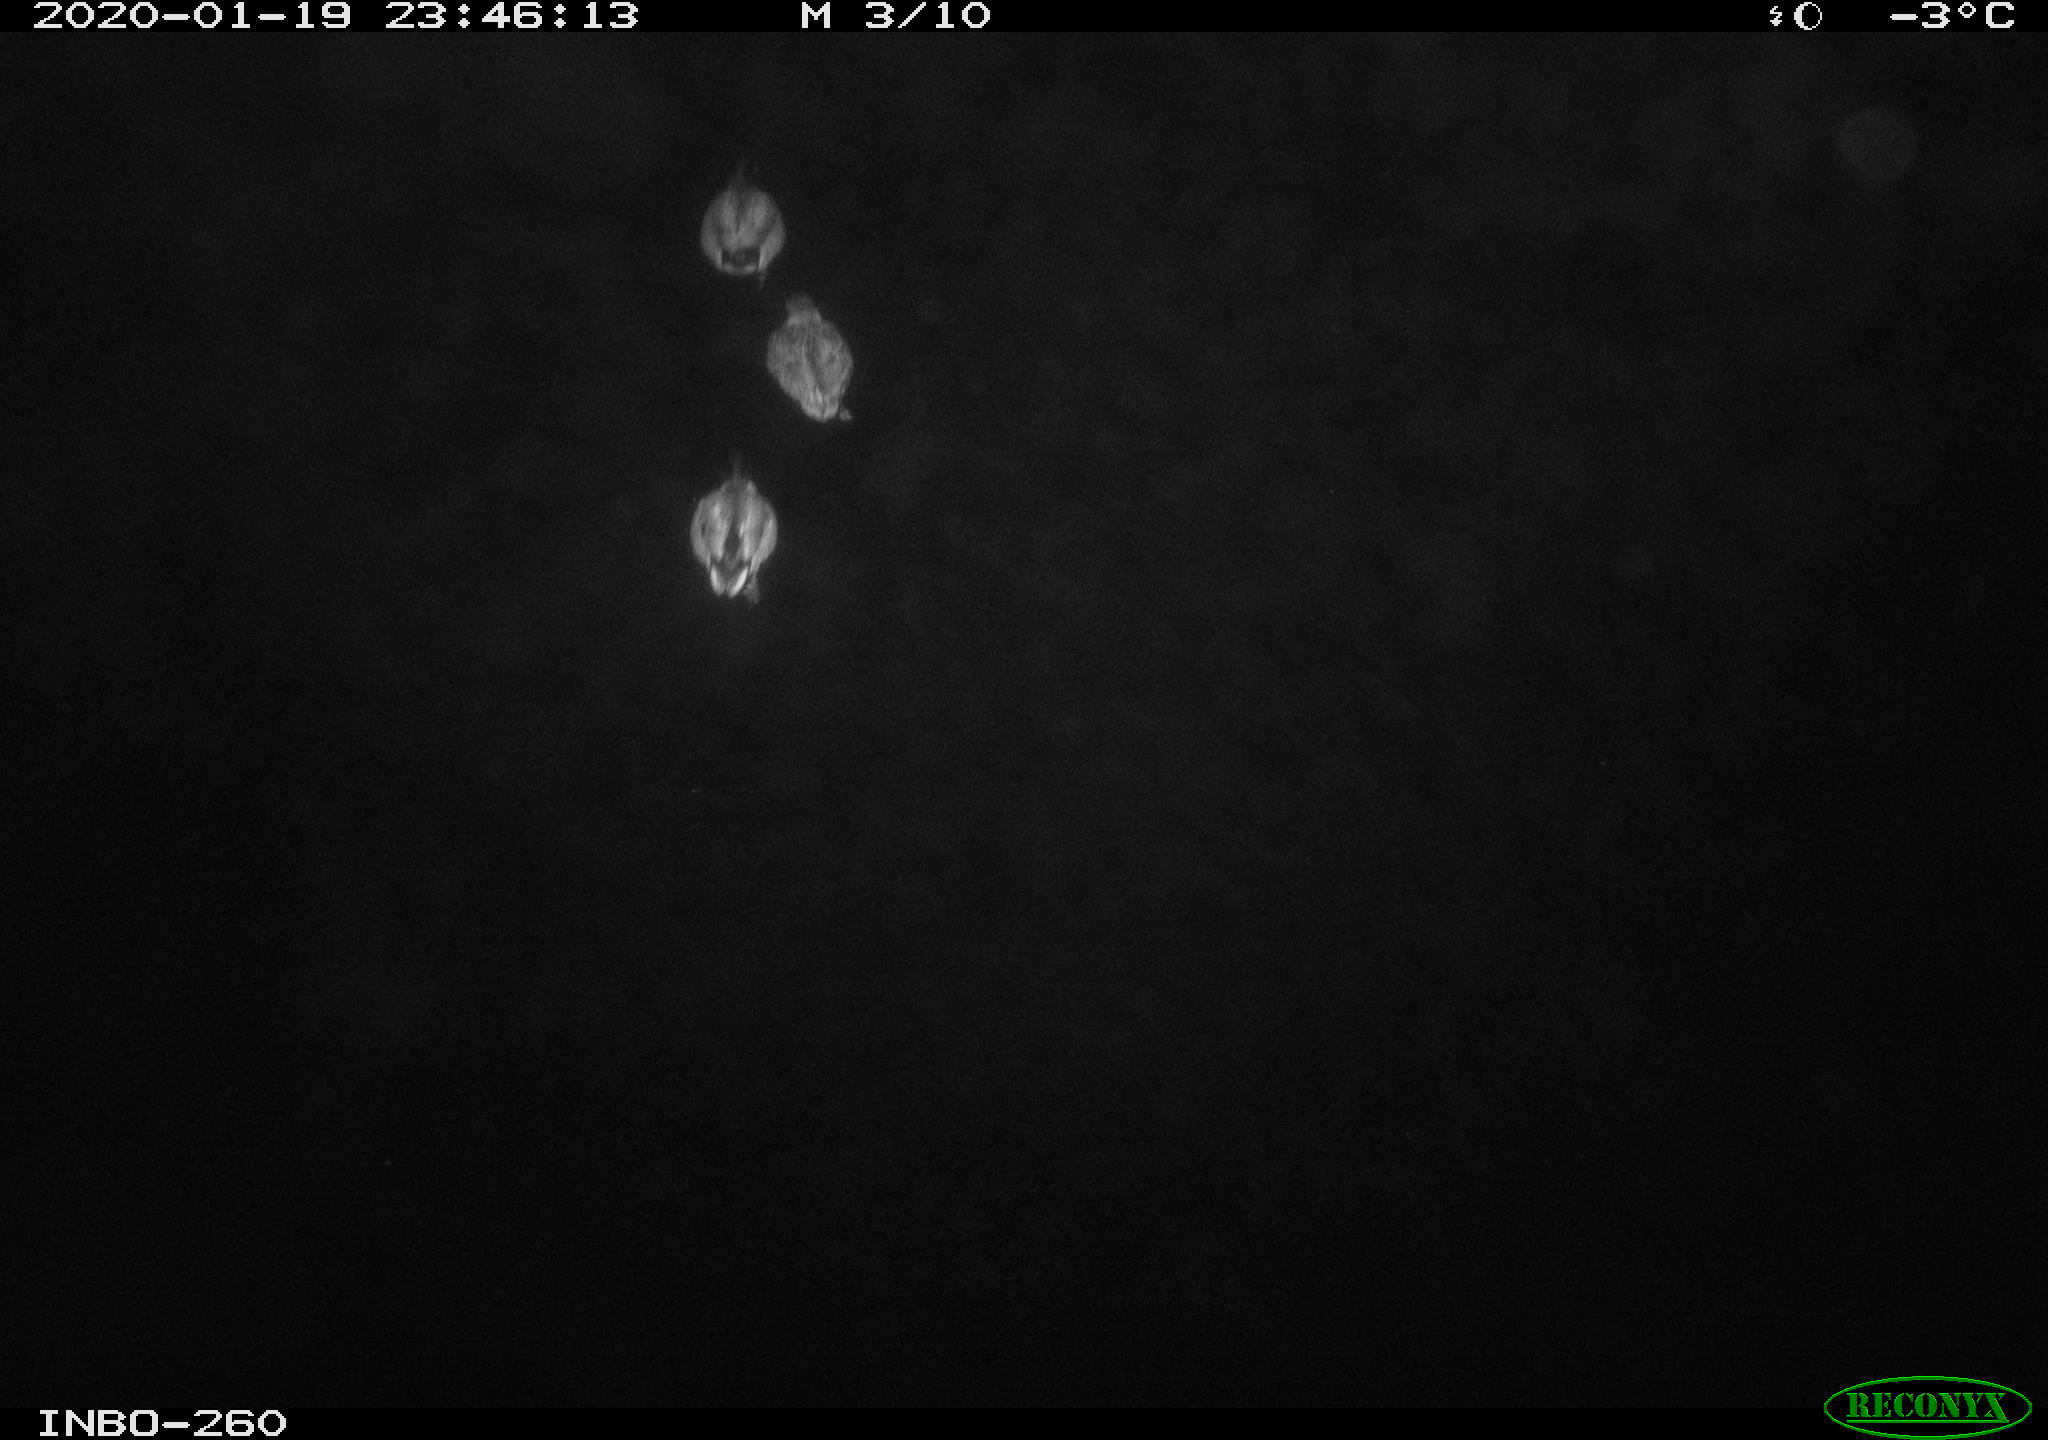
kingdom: Animalia
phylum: Chordata
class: Aves
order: Anseriformes
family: Anatidae
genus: Anas
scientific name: Anas platyrhynchos
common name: Mallard
